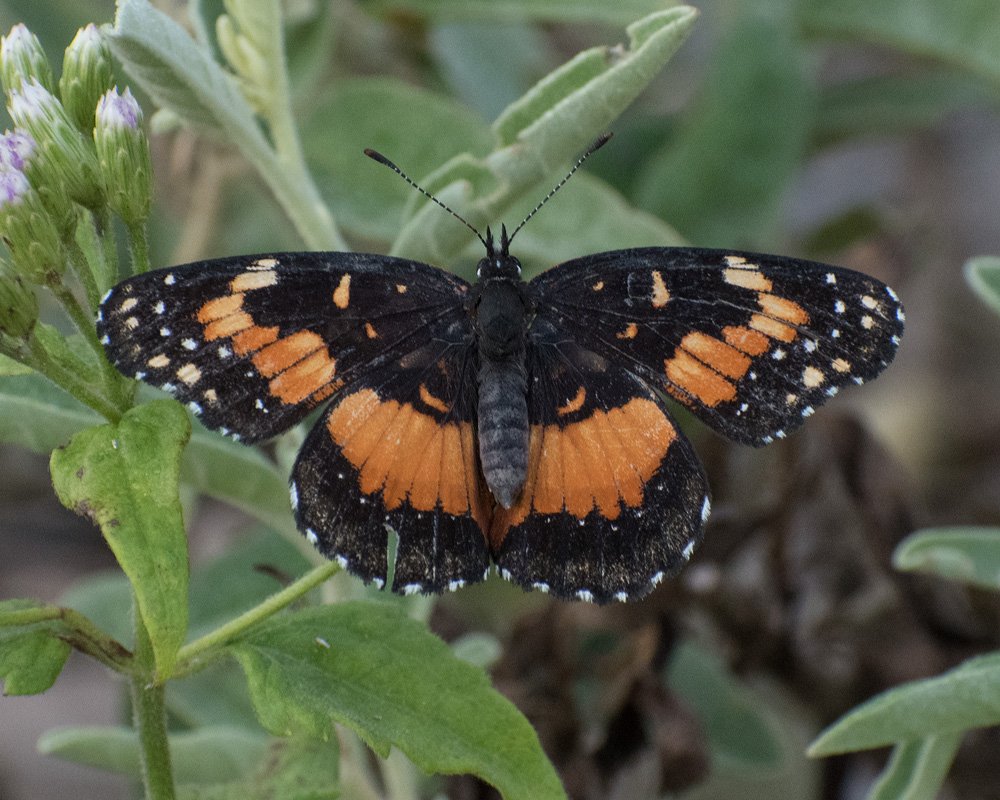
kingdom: Animalia
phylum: Arthropoda
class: Insecta
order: Lepidoptera
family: Nymphalidae
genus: Chlosyne
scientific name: Chlosyne lacinia
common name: Bordered Patch
